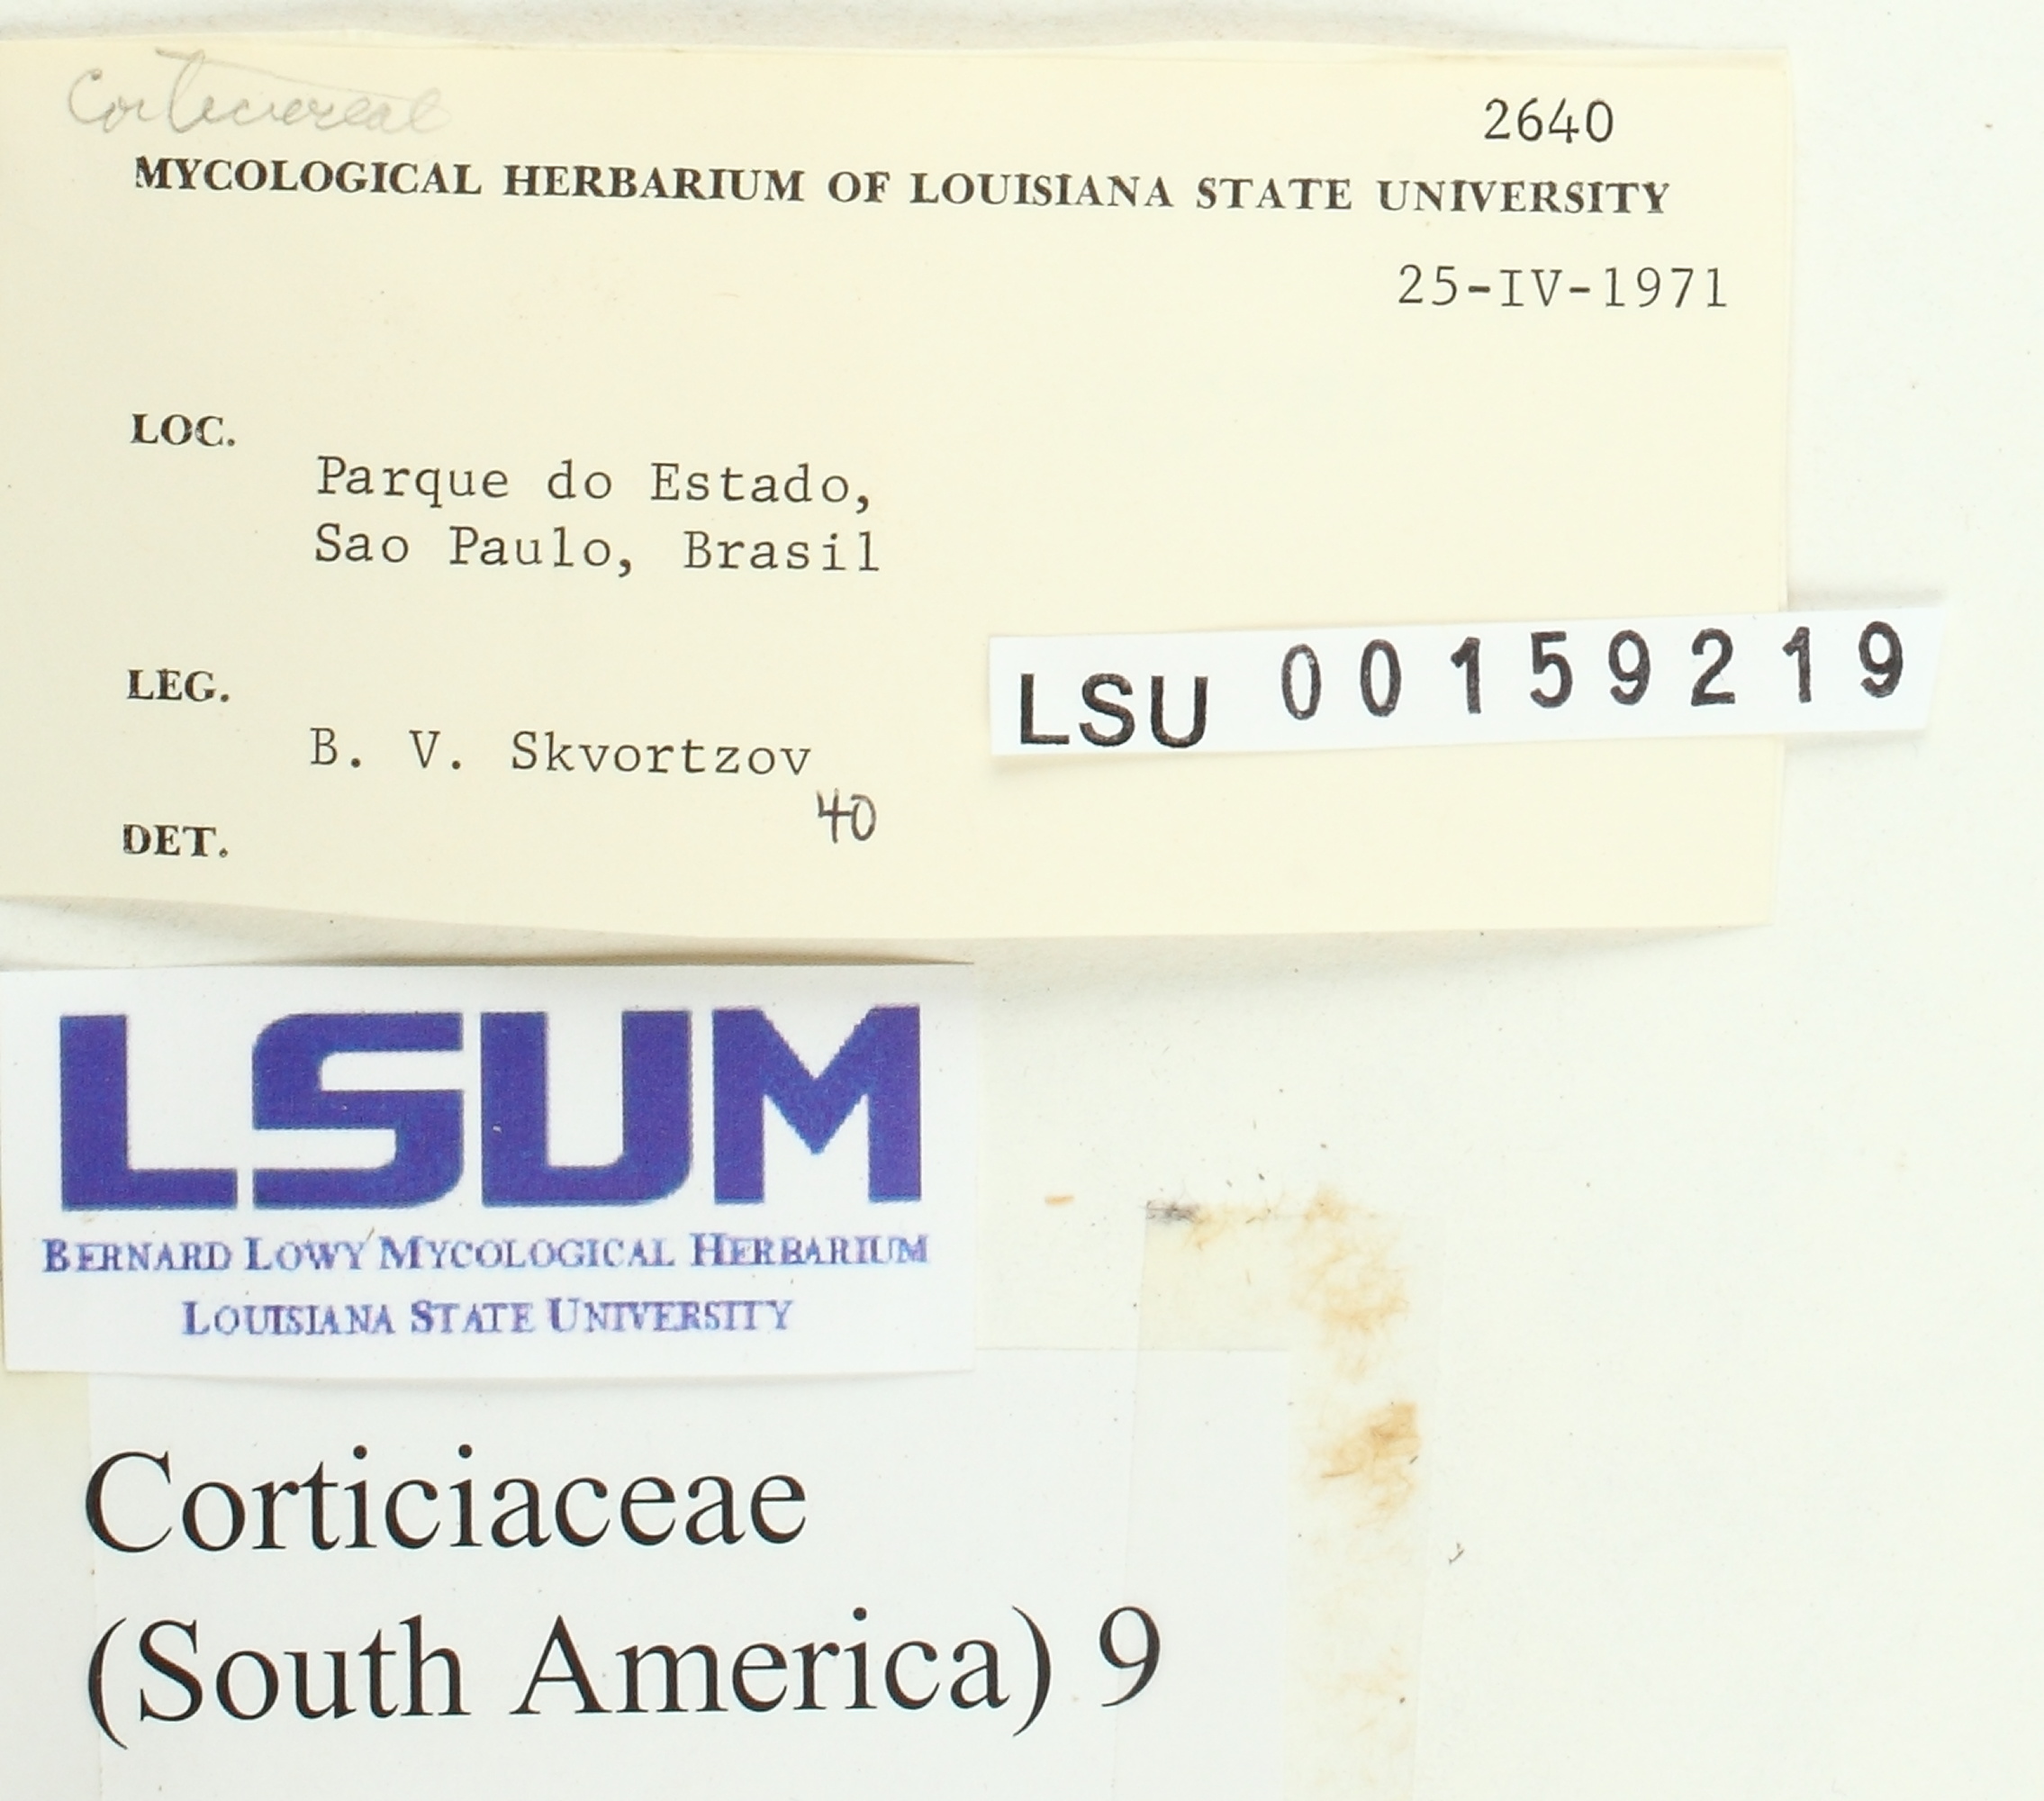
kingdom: Fungi
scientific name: Fungi
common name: Fungi
